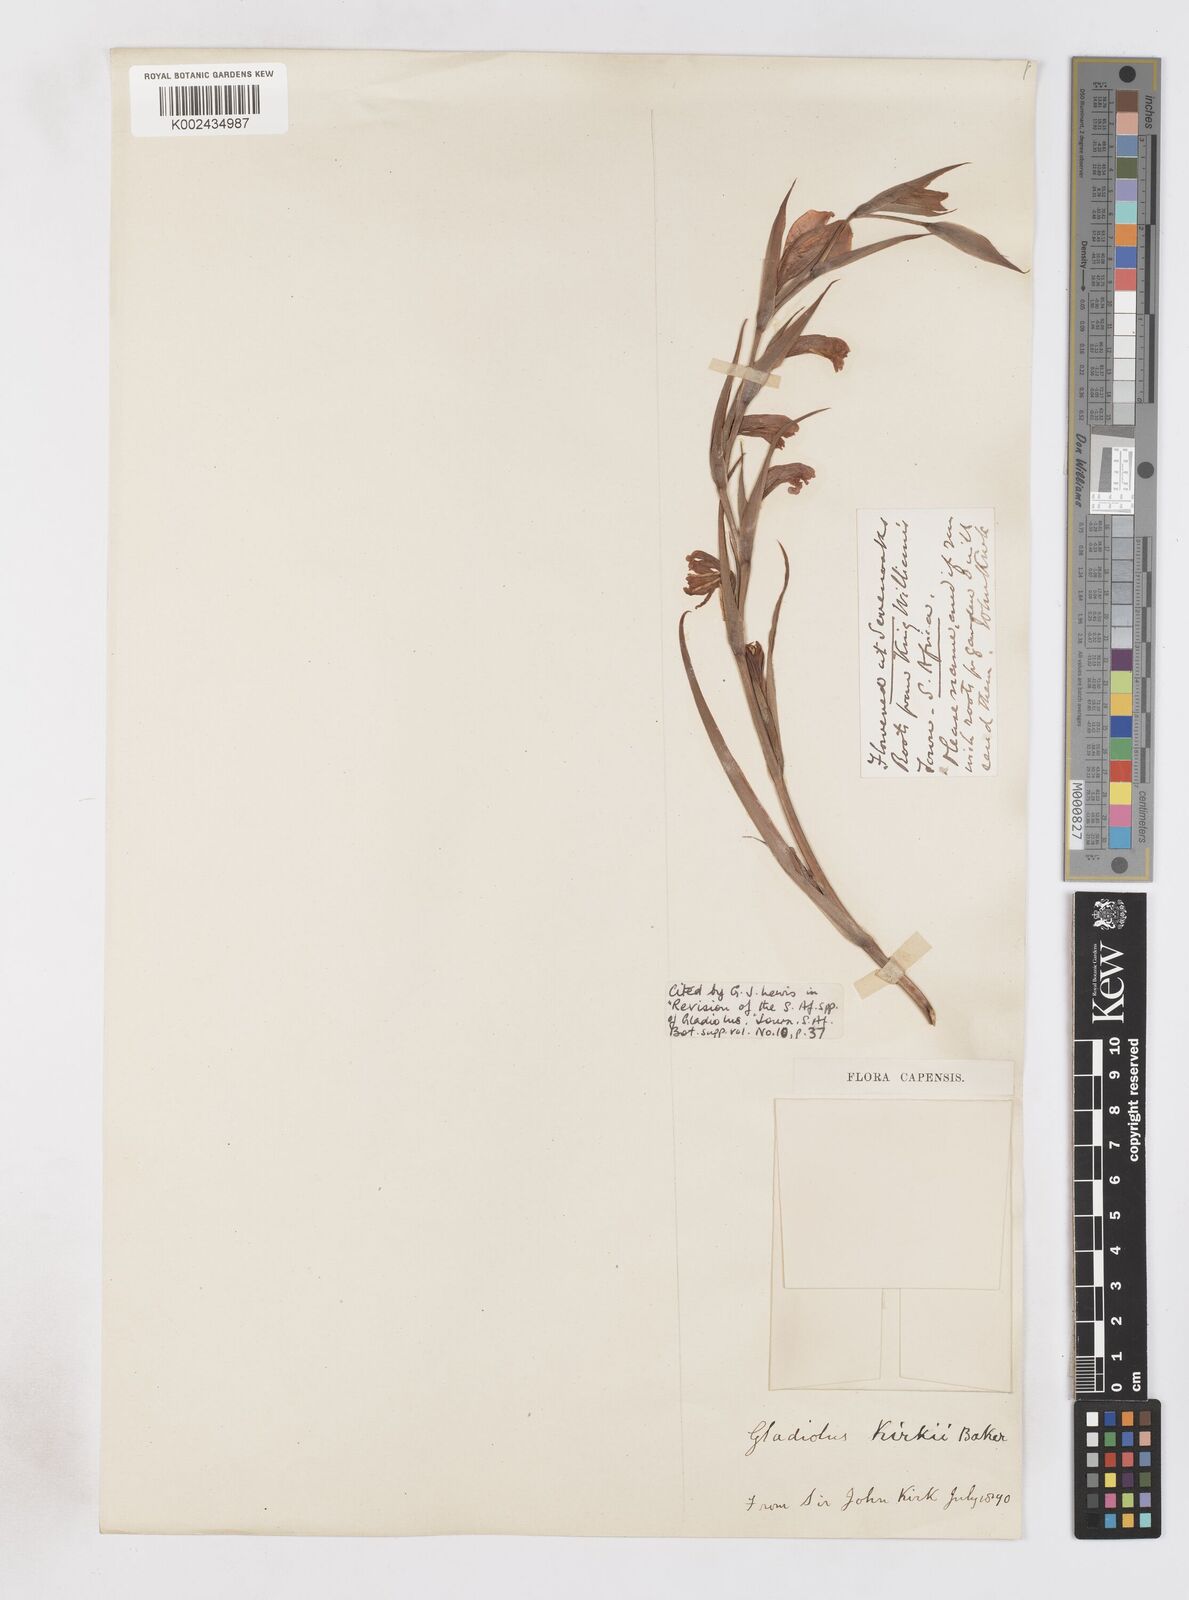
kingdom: Plantae
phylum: Tracheophyta
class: Liliopsida
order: Asparagales
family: Iridaceae
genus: Gladiolus
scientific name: Gladiolus ochroleucus
